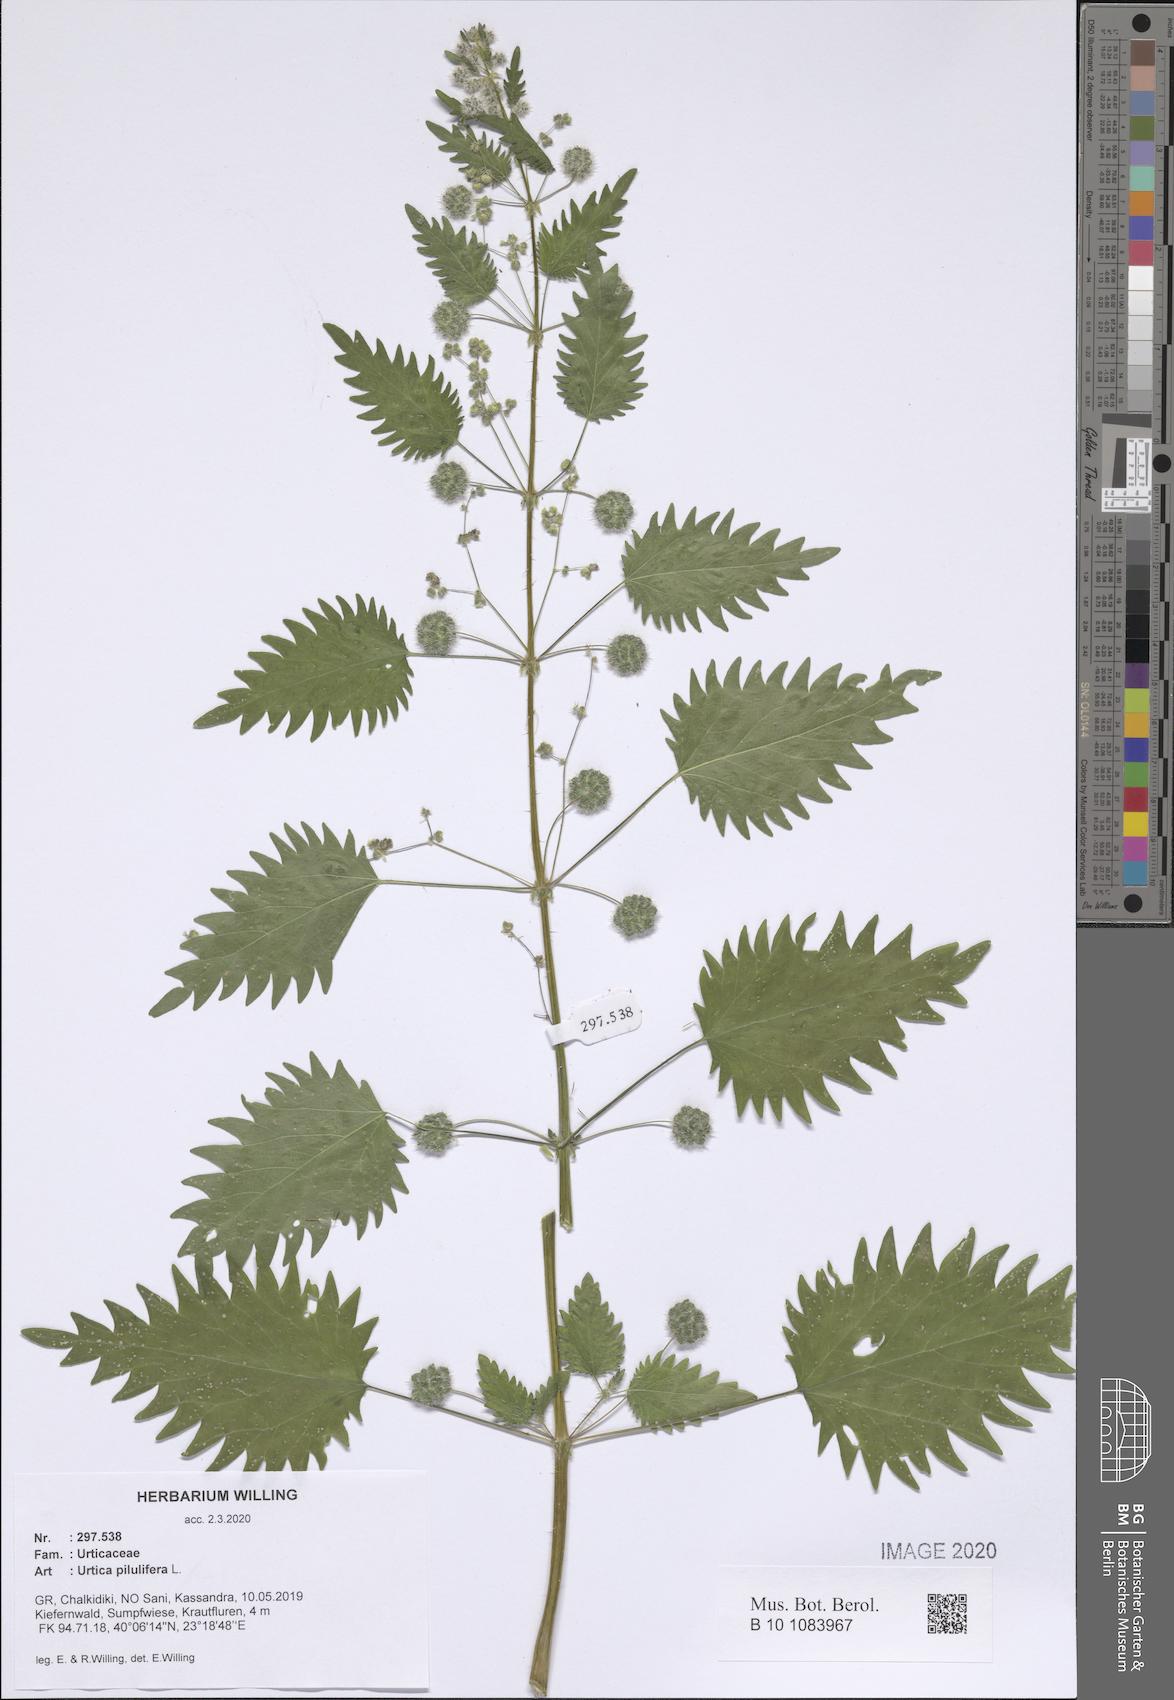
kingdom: Plantae
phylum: Tracheophyta
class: Magnoliopsida
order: Rosales
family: Urticaceae
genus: Urtica
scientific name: Urtica pilulifera
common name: Roman nettle
